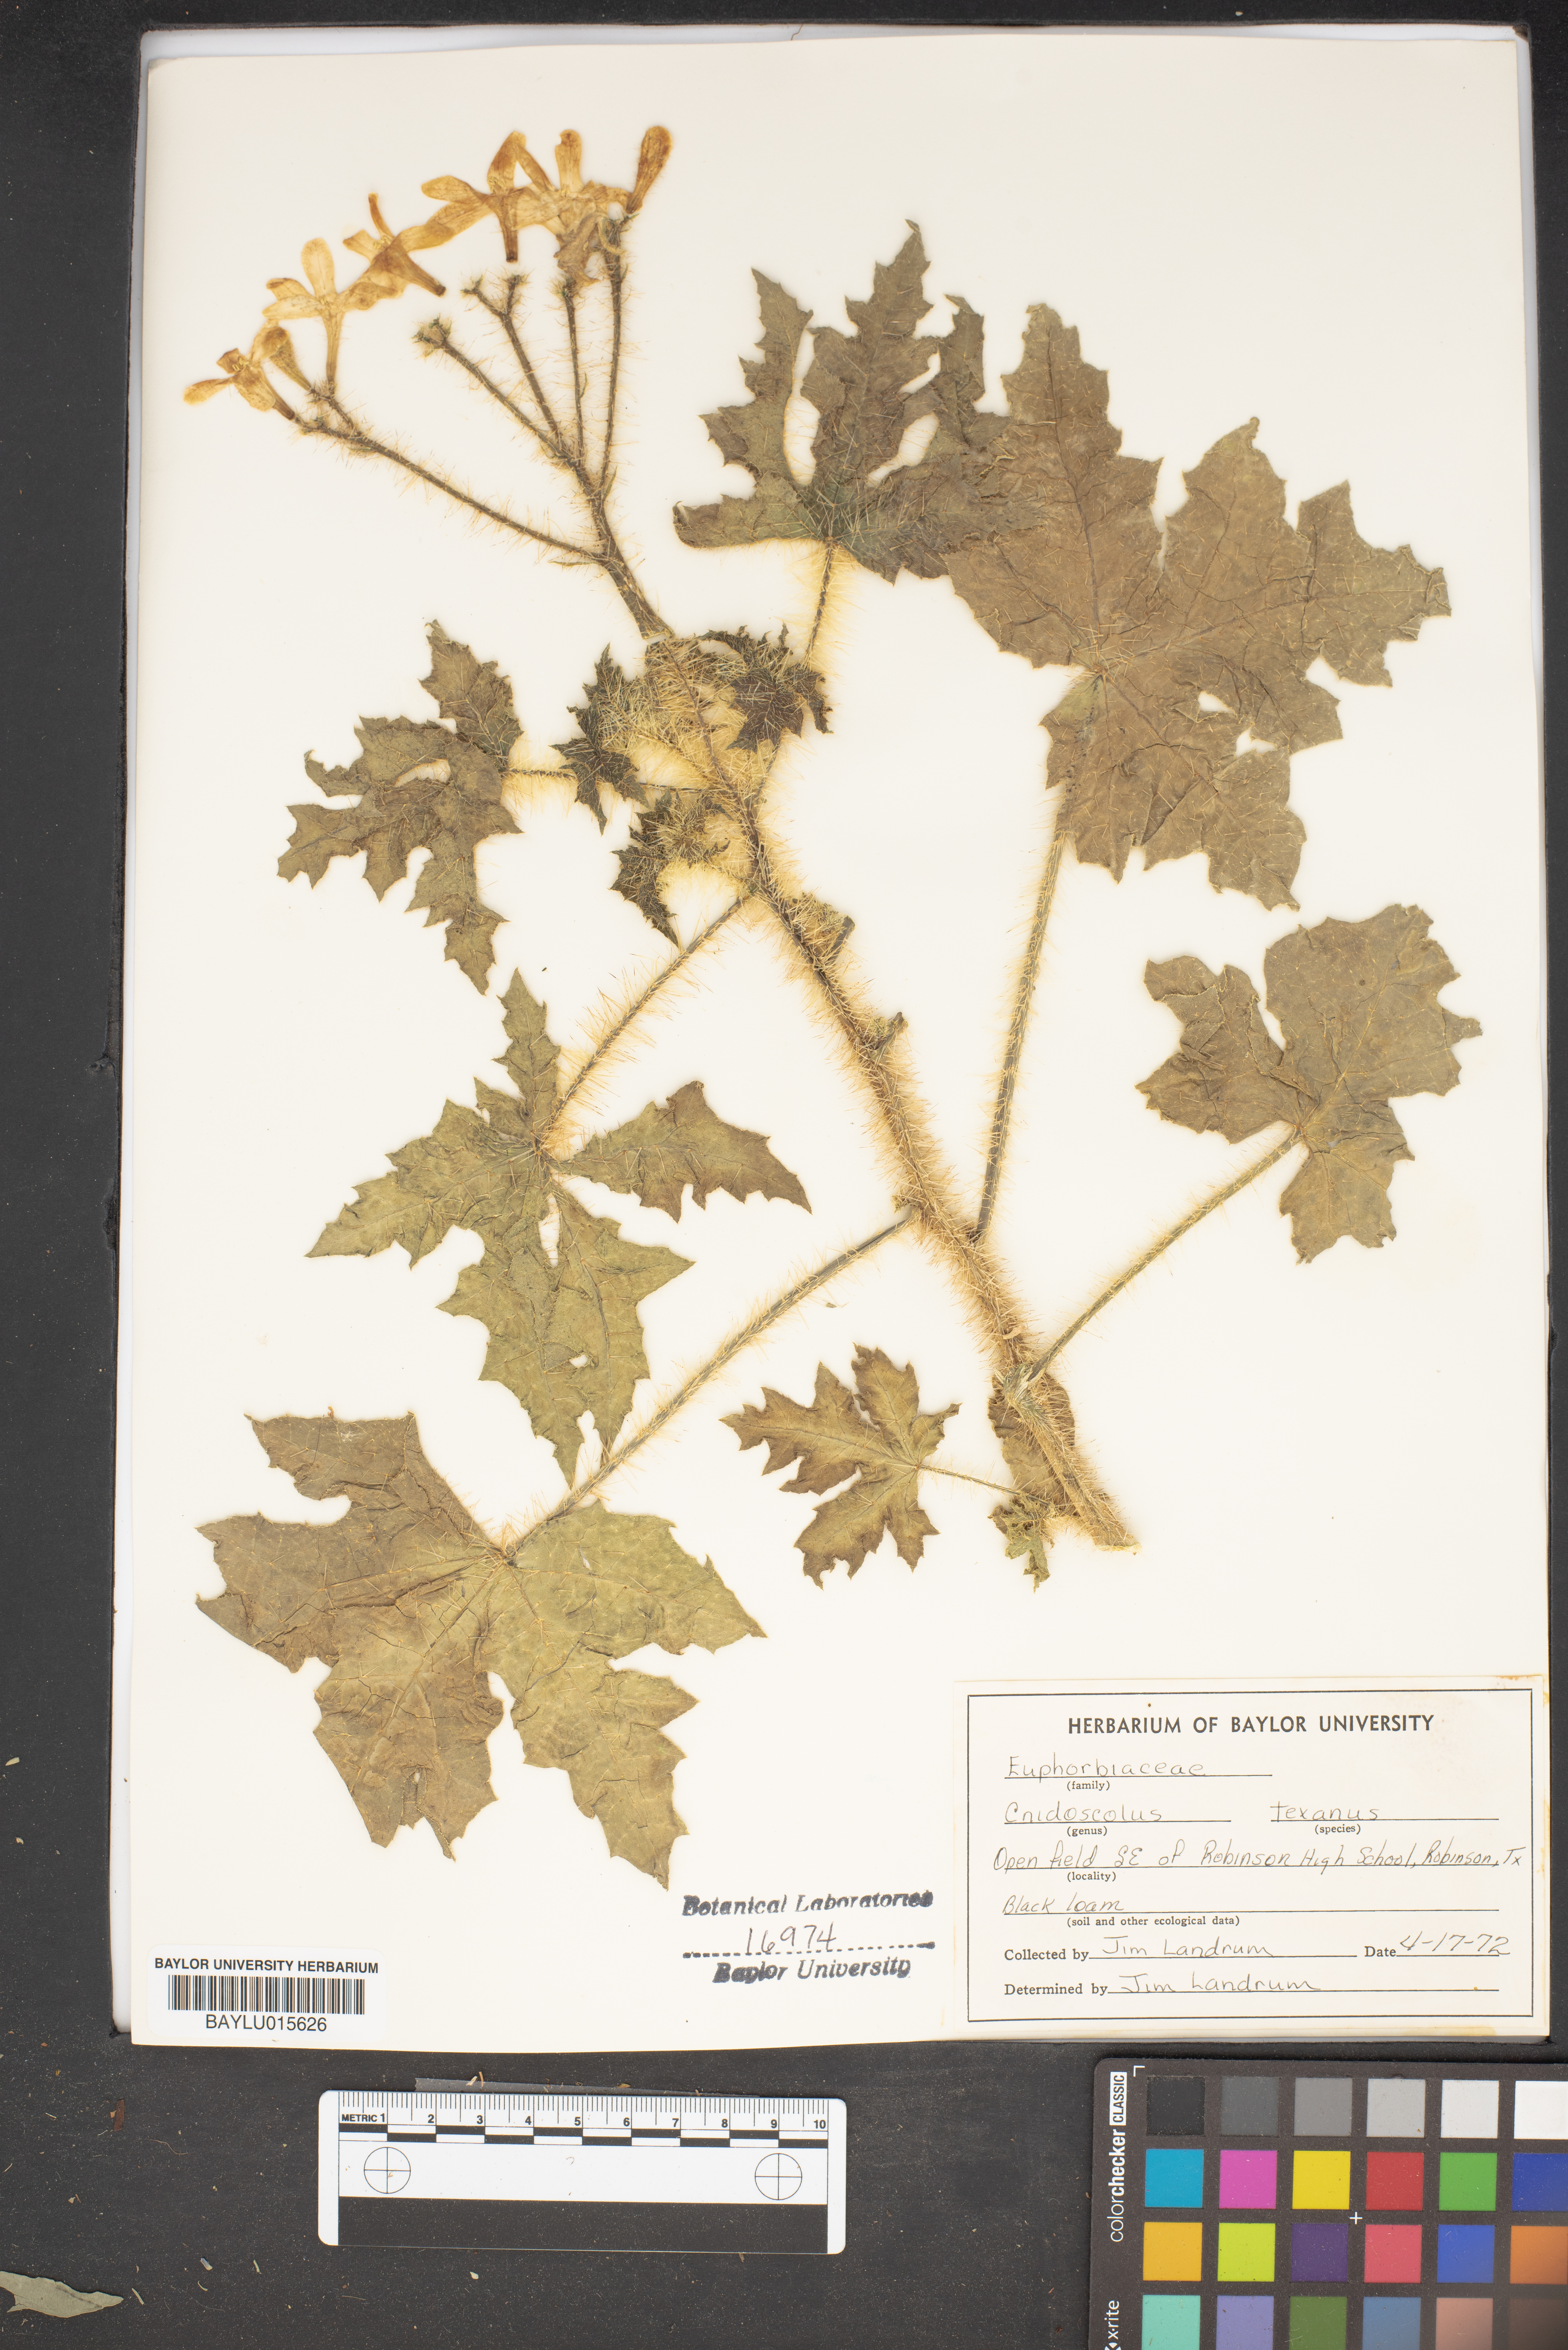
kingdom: Plantae
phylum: Tracheophyta
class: Magnoliopsida
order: Malpighiales
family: Euphorbiaceae
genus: Cnidoscolus
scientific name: Cnidoscolus texanus
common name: Texas bull-nettle
